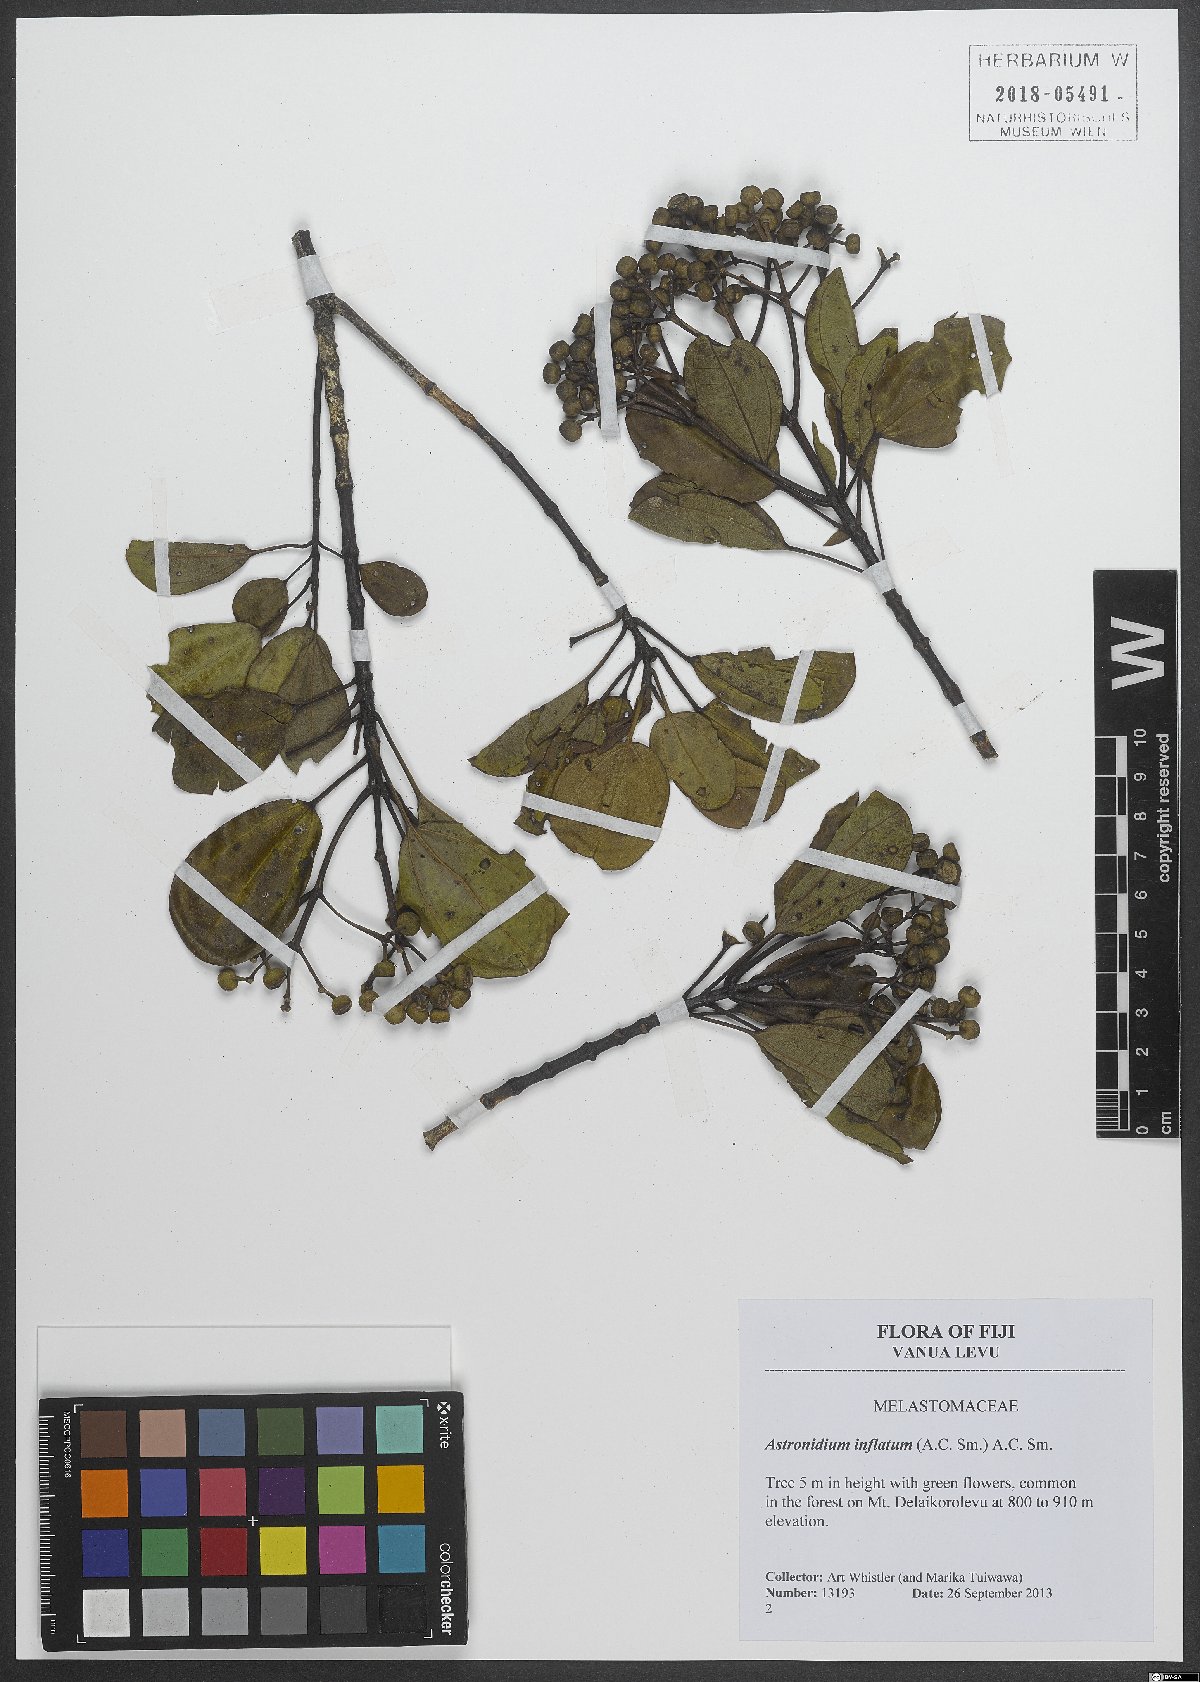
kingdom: Plantae
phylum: Tracheophyta
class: Magnoliopsida
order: Myrtales
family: Melastomataceae
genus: Astronidium
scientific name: Astronidium inflatum
